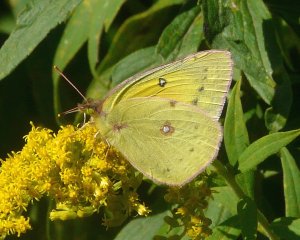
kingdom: Animalia
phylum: Arthropoda
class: Insecta
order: Lepidoptera
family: Pieridae
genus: Colias
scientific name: Colias eurytheme
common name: Orange Sulphur
